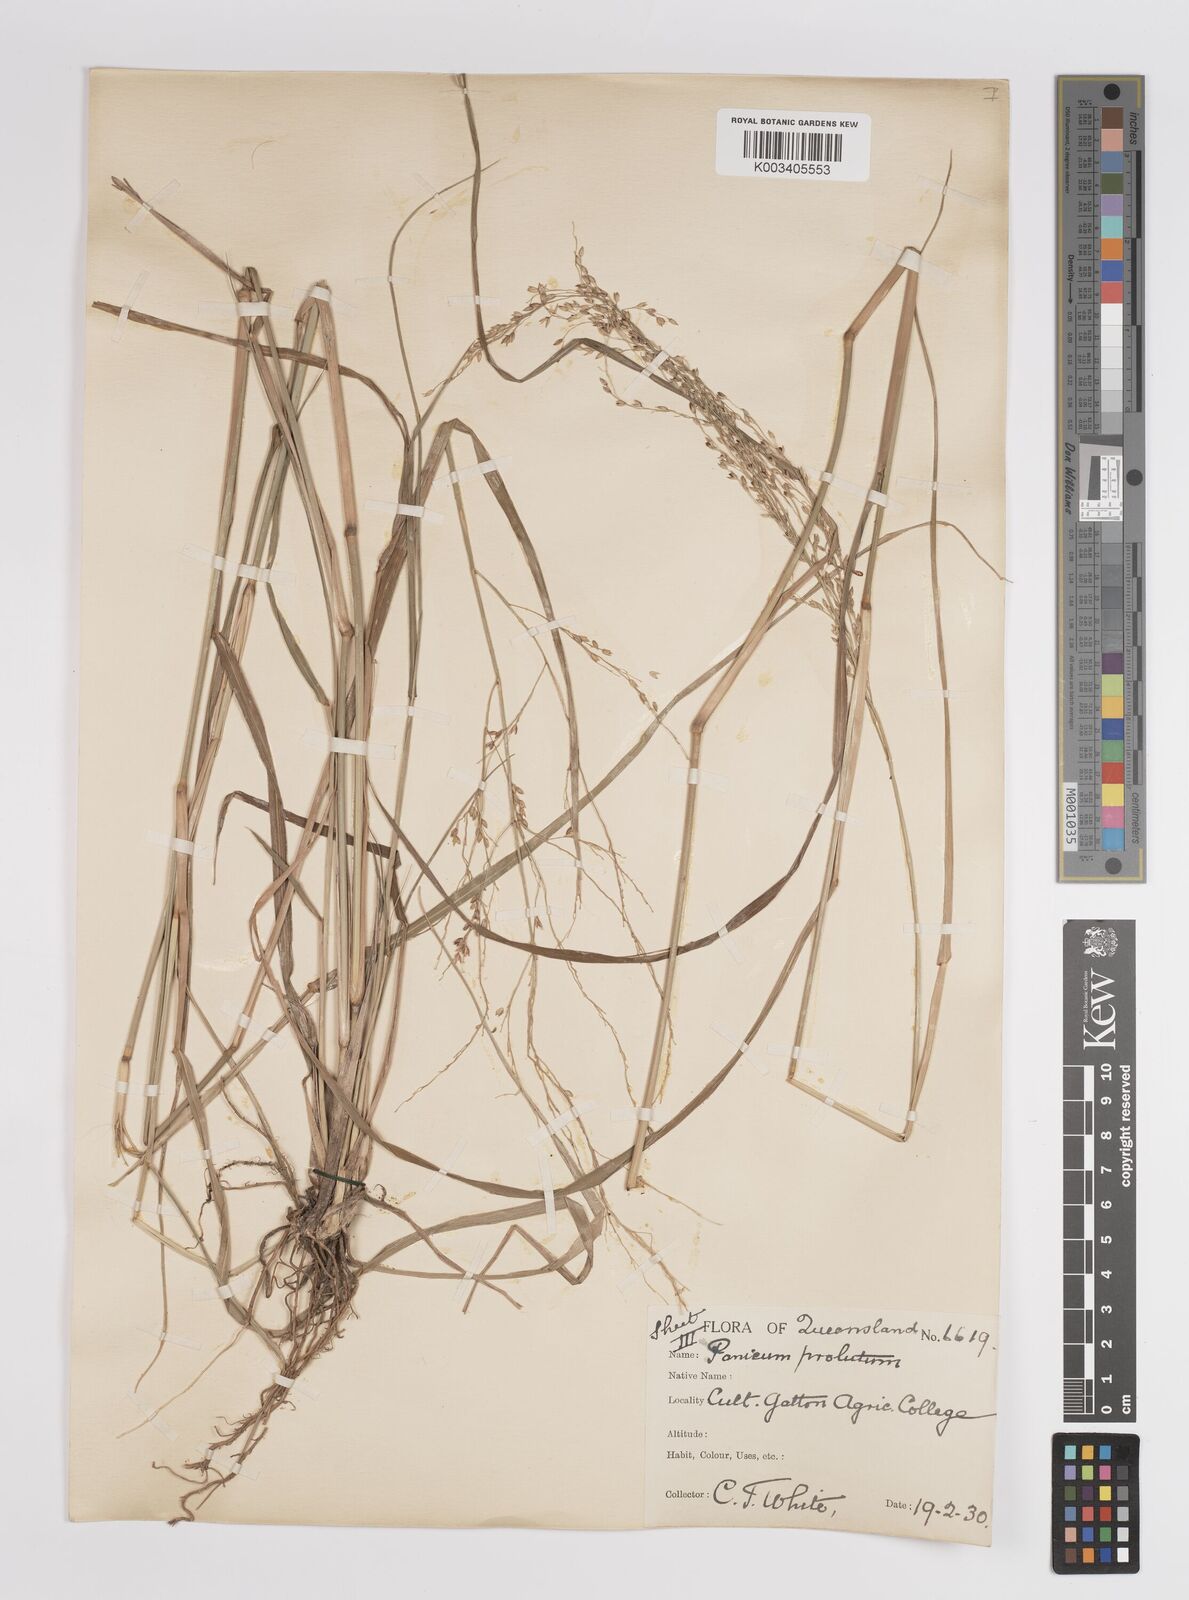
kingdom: Plantae
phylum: Tracheophyta
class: Liliopsida
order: Poales
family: Poaceae
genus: Panicum
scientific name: Panicum
